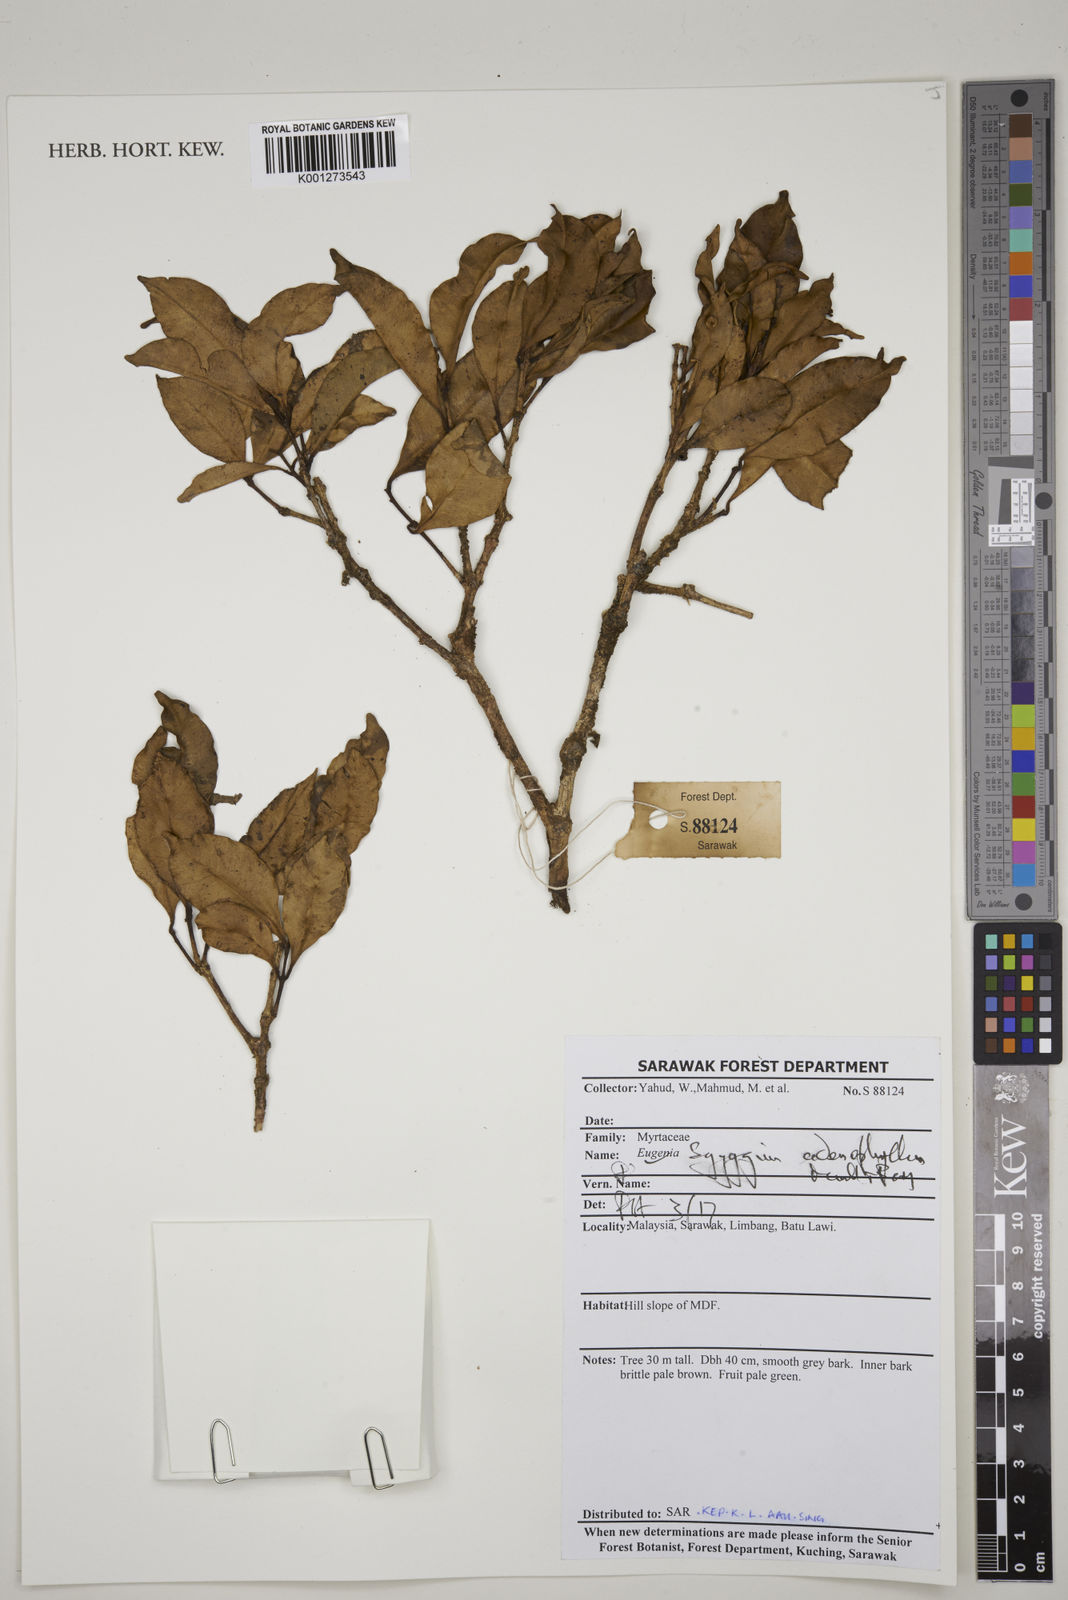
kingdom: Plantae
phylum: Tracheophyta
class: Magnoliopsida
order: Myrtales
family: Myrtaceae
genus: Syzygium
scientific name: Syzygium adenophyllum
